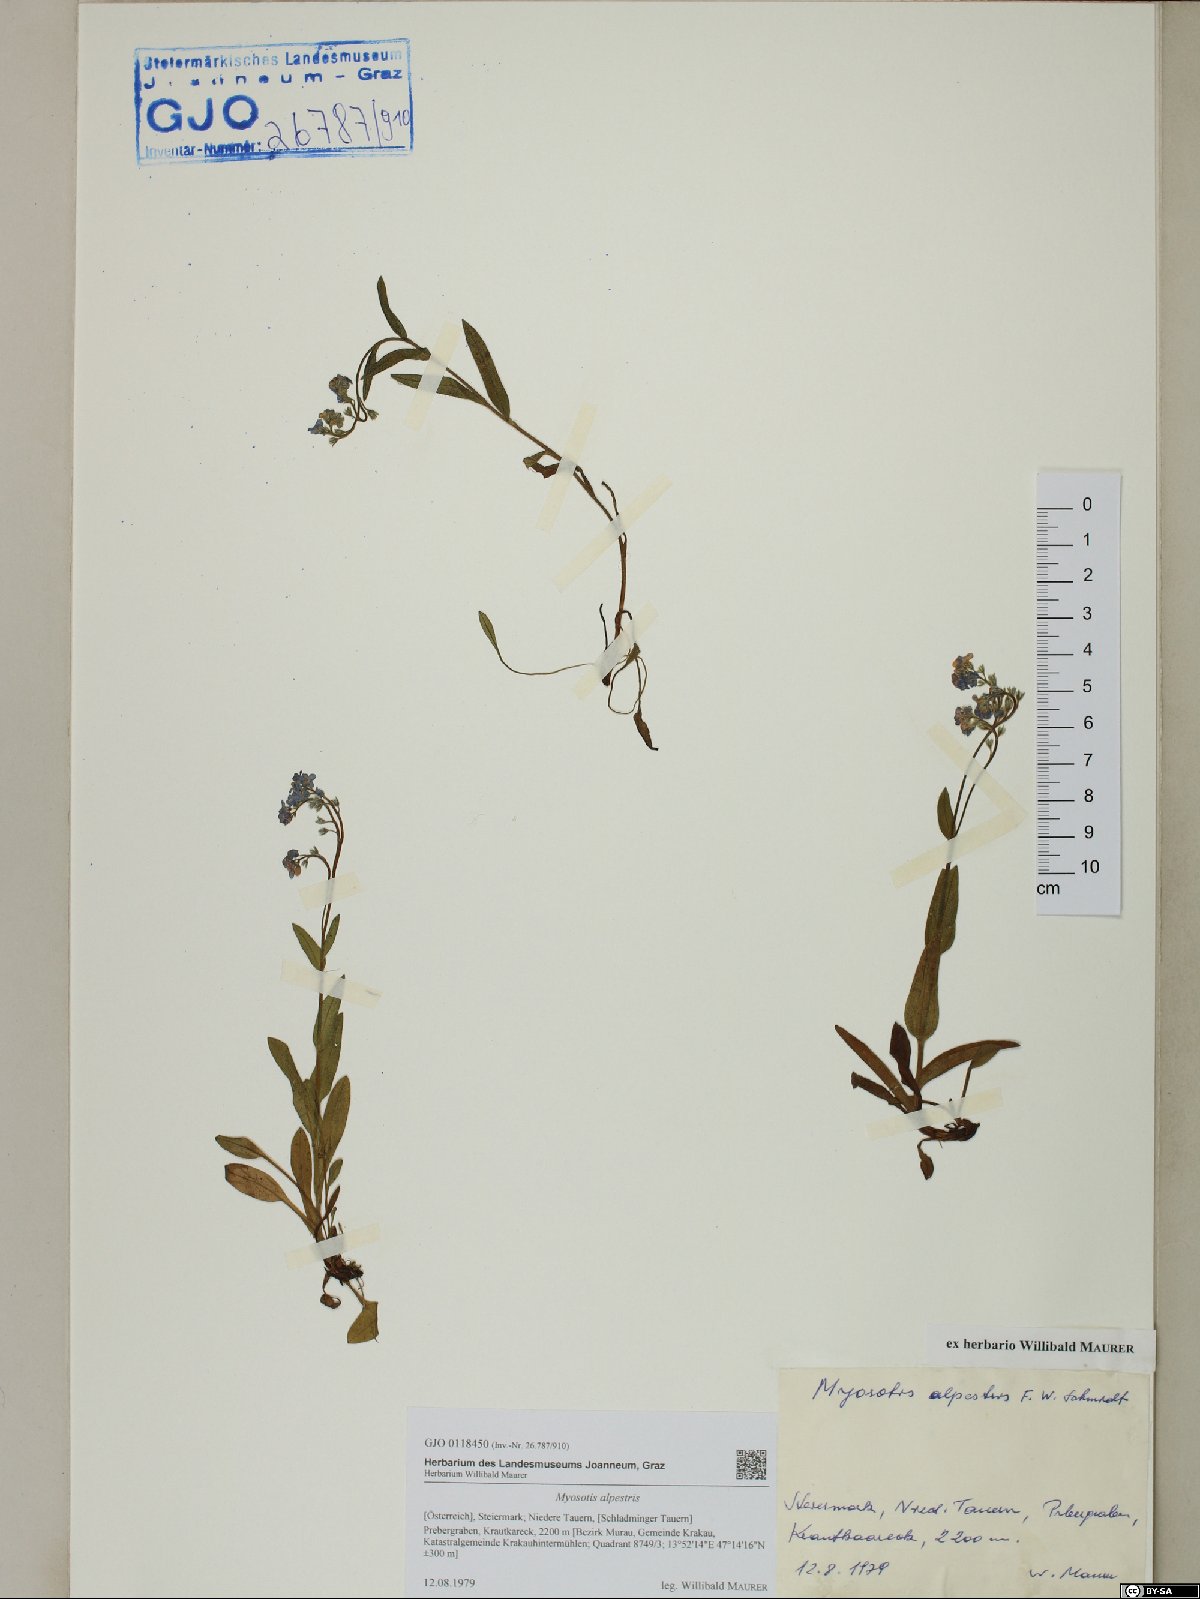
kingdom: Plantae
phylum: Tracheophyta
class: Magnoliopsida
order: Boraginales
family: Boraginaceae
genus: Myosotis
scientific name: Myosotis alpestris
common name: Alpine forget-me-not
